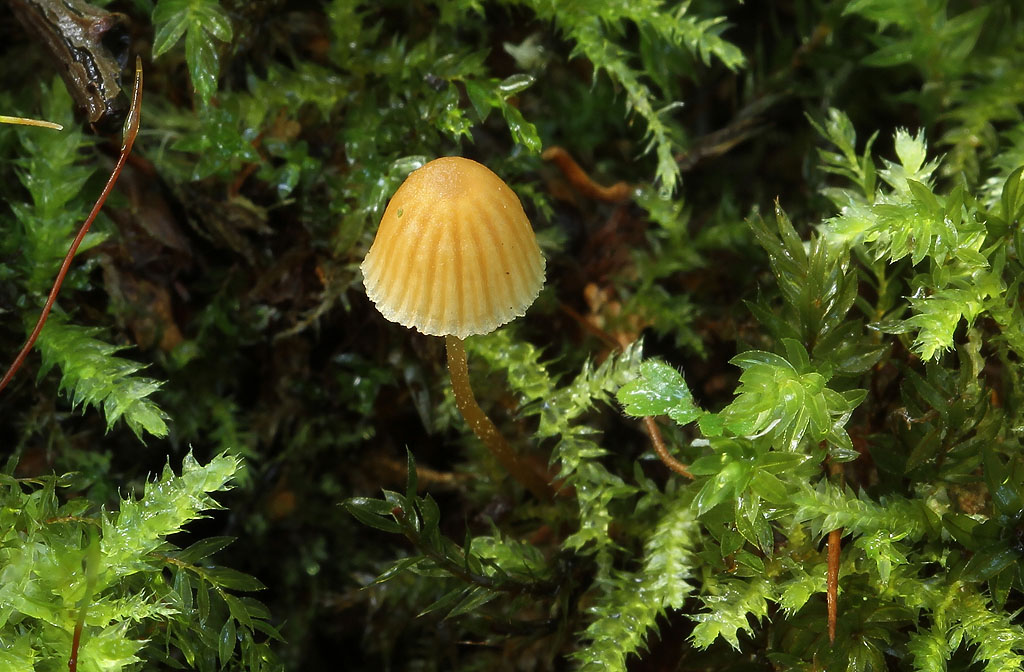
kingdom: Fungi
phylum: Basidiomycota
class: Agaricomycetes
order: Agaricales
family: Hymenogastraceae
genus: Galerina
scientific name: Galerina hypnorum
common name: mos-hjelmhat
